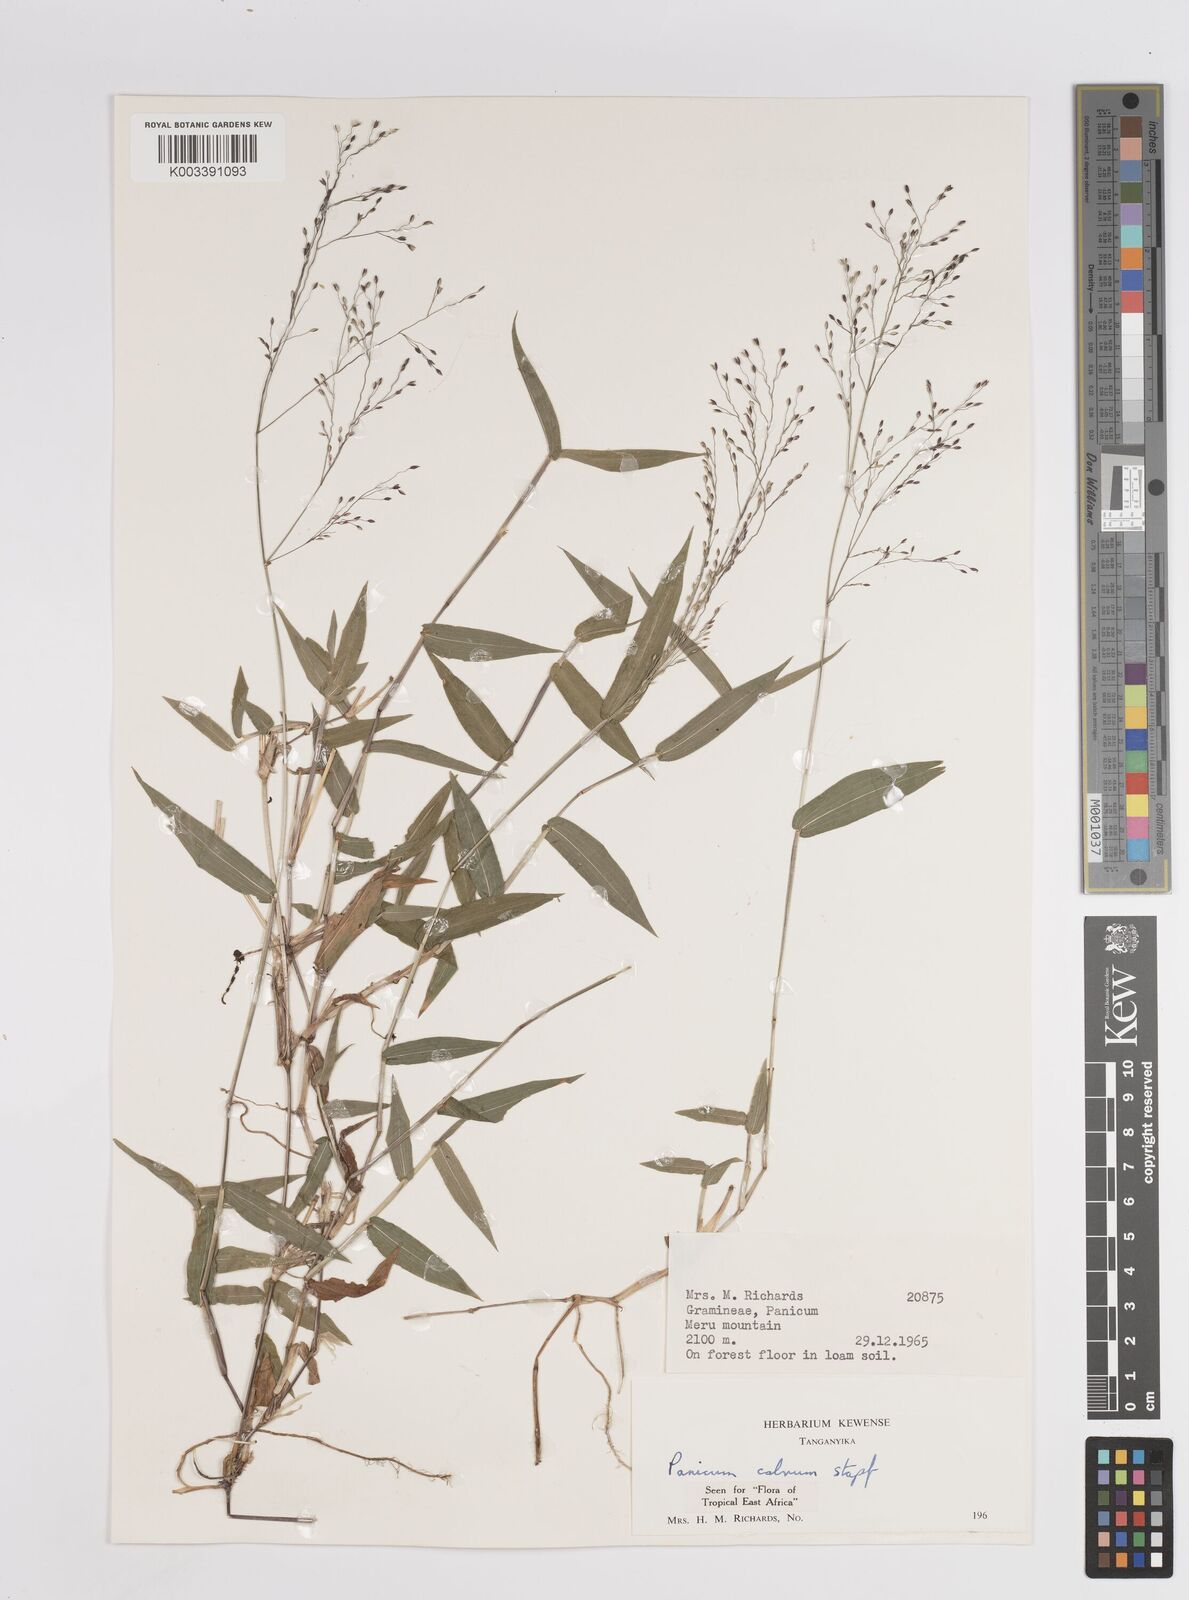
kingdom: Plantae
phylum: Tracheophyta
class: Liliopsida
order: Poales
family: Poaceae
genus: Panicum
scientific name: Panicum calvum
